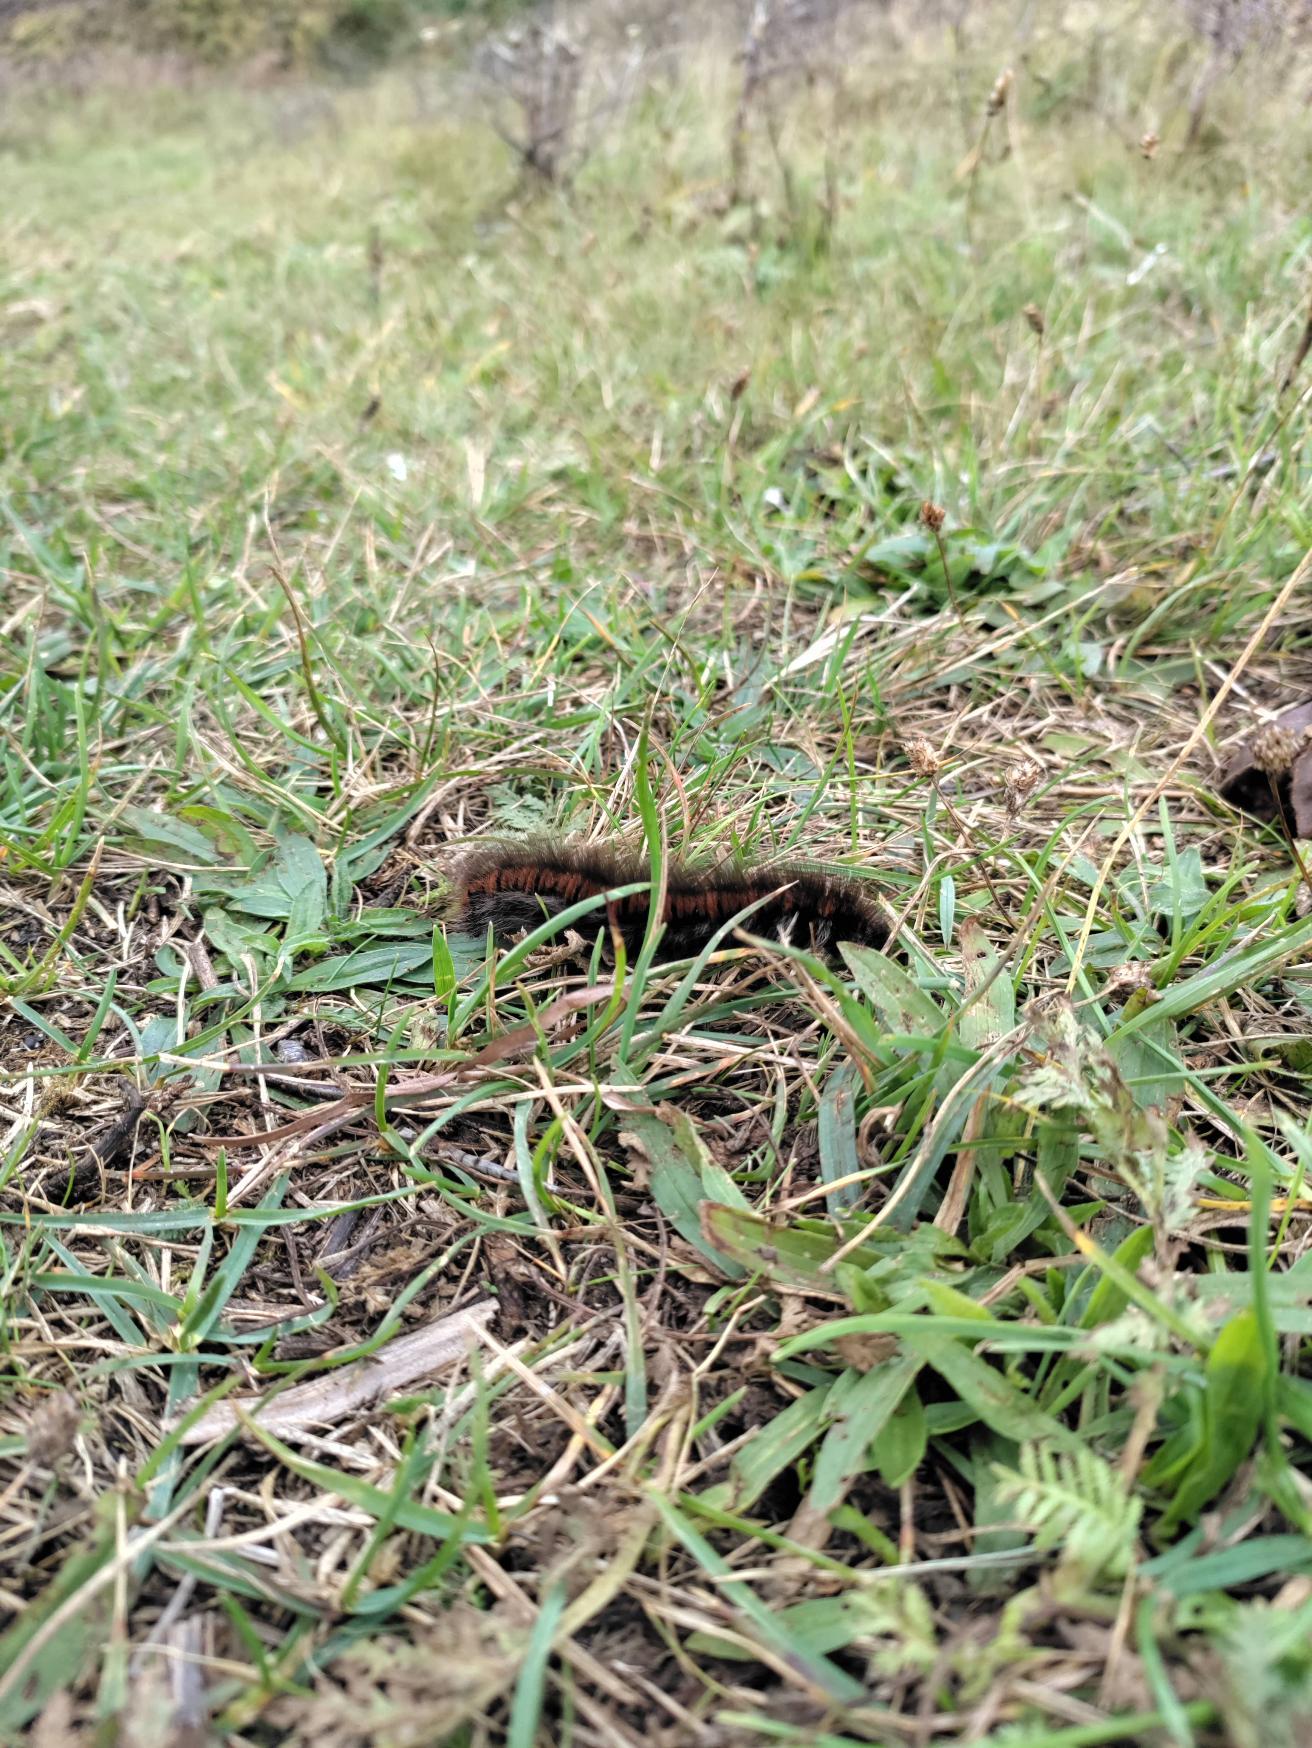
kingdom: Animalia
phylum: Arthropoda
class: Insecta
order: Lepidoptera
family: Lasiocampidae
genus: Macrothylacia
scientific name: Macrothylacia rubi
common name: Brombærspinder
